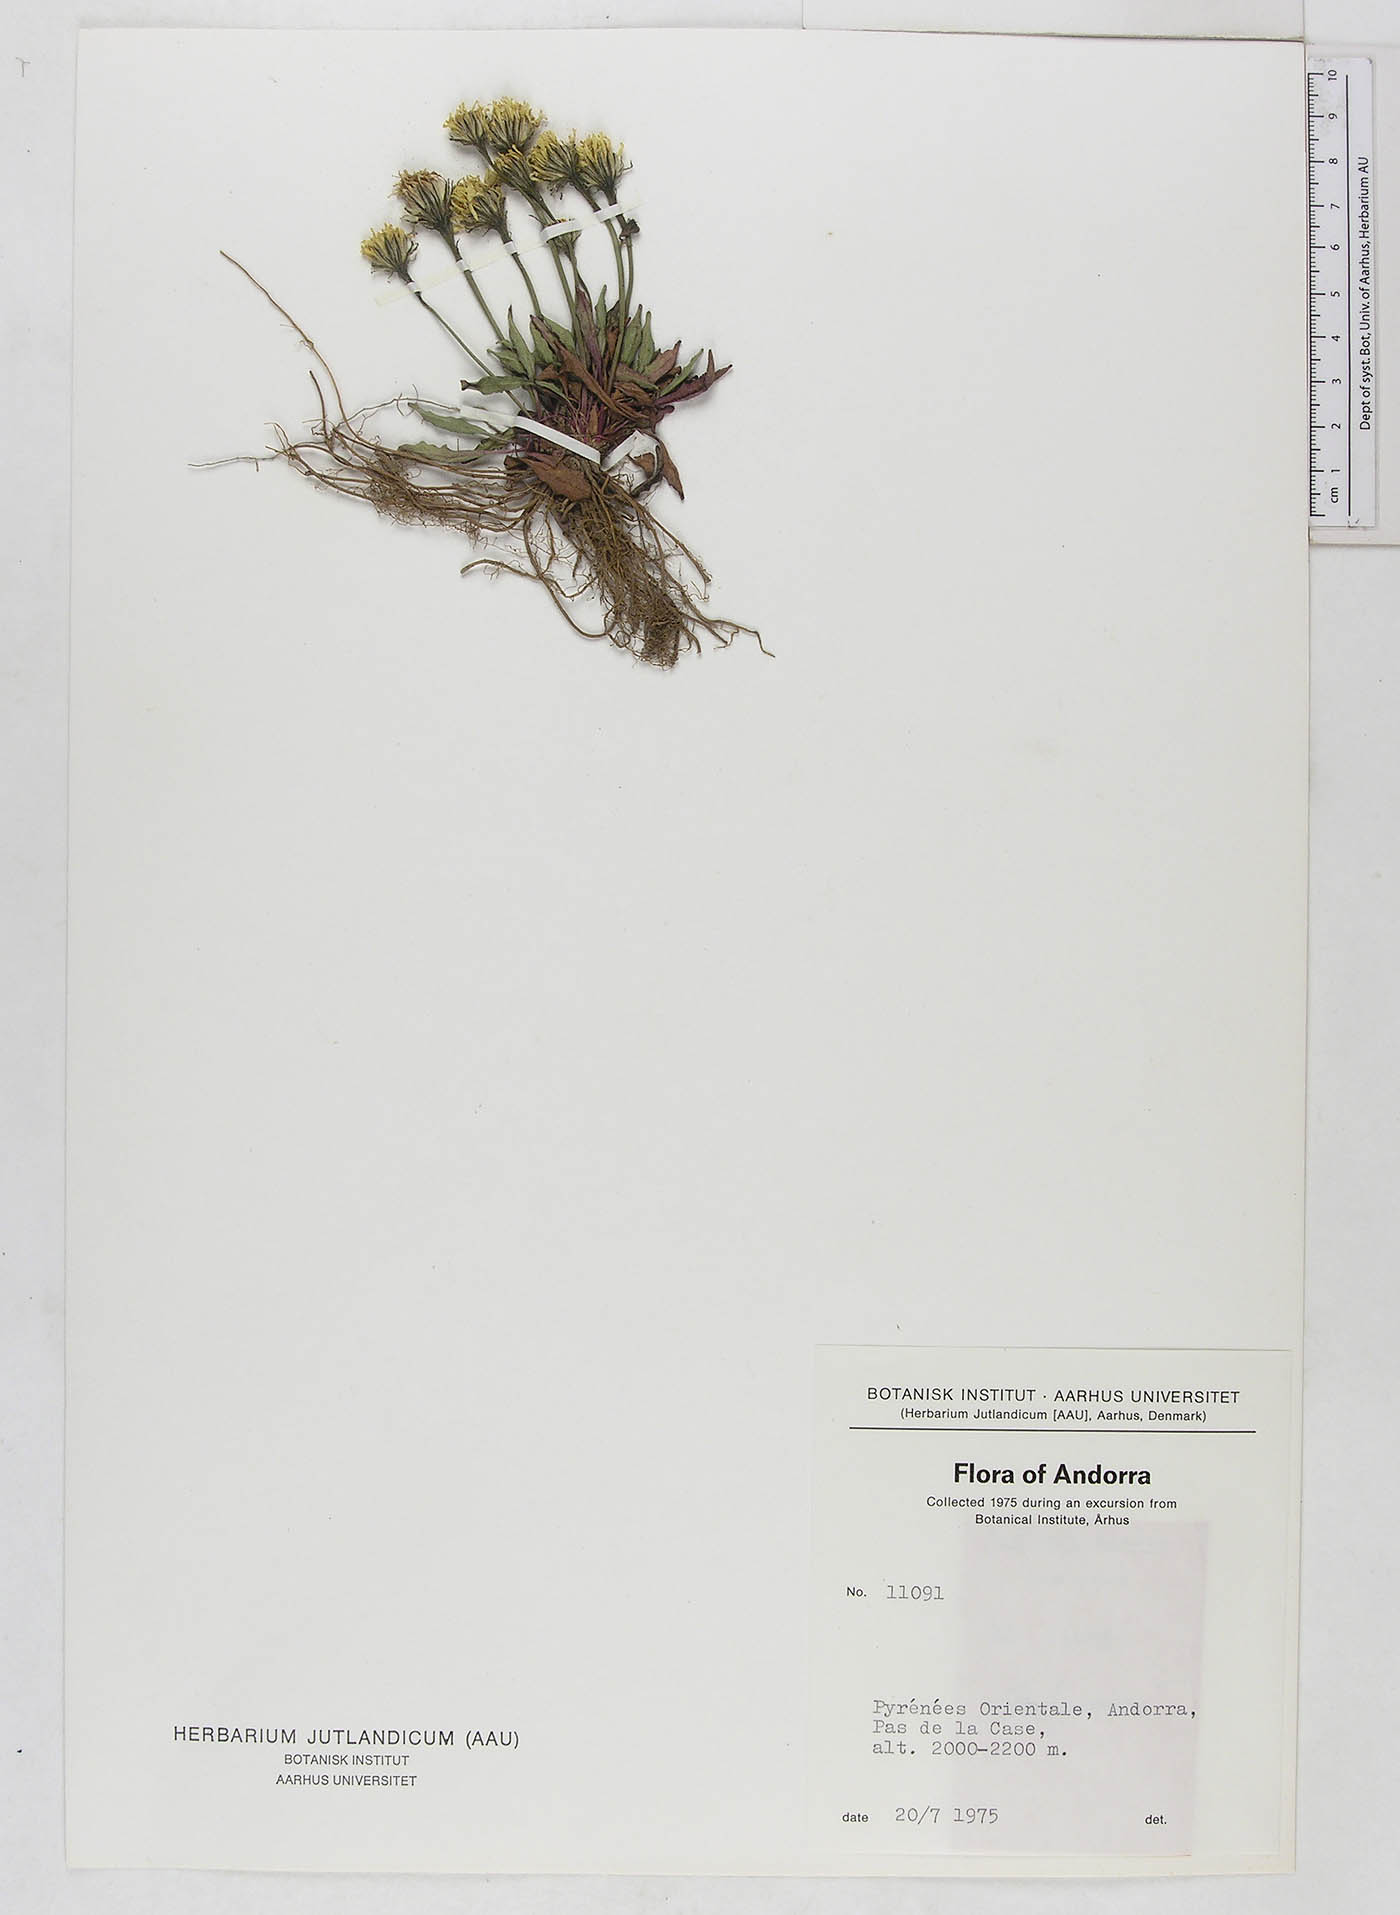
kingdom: Plantae
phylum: Tracheophyta
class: Magnoliopsida
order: Asterales
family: Asteraceae
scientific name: Asteraceae
